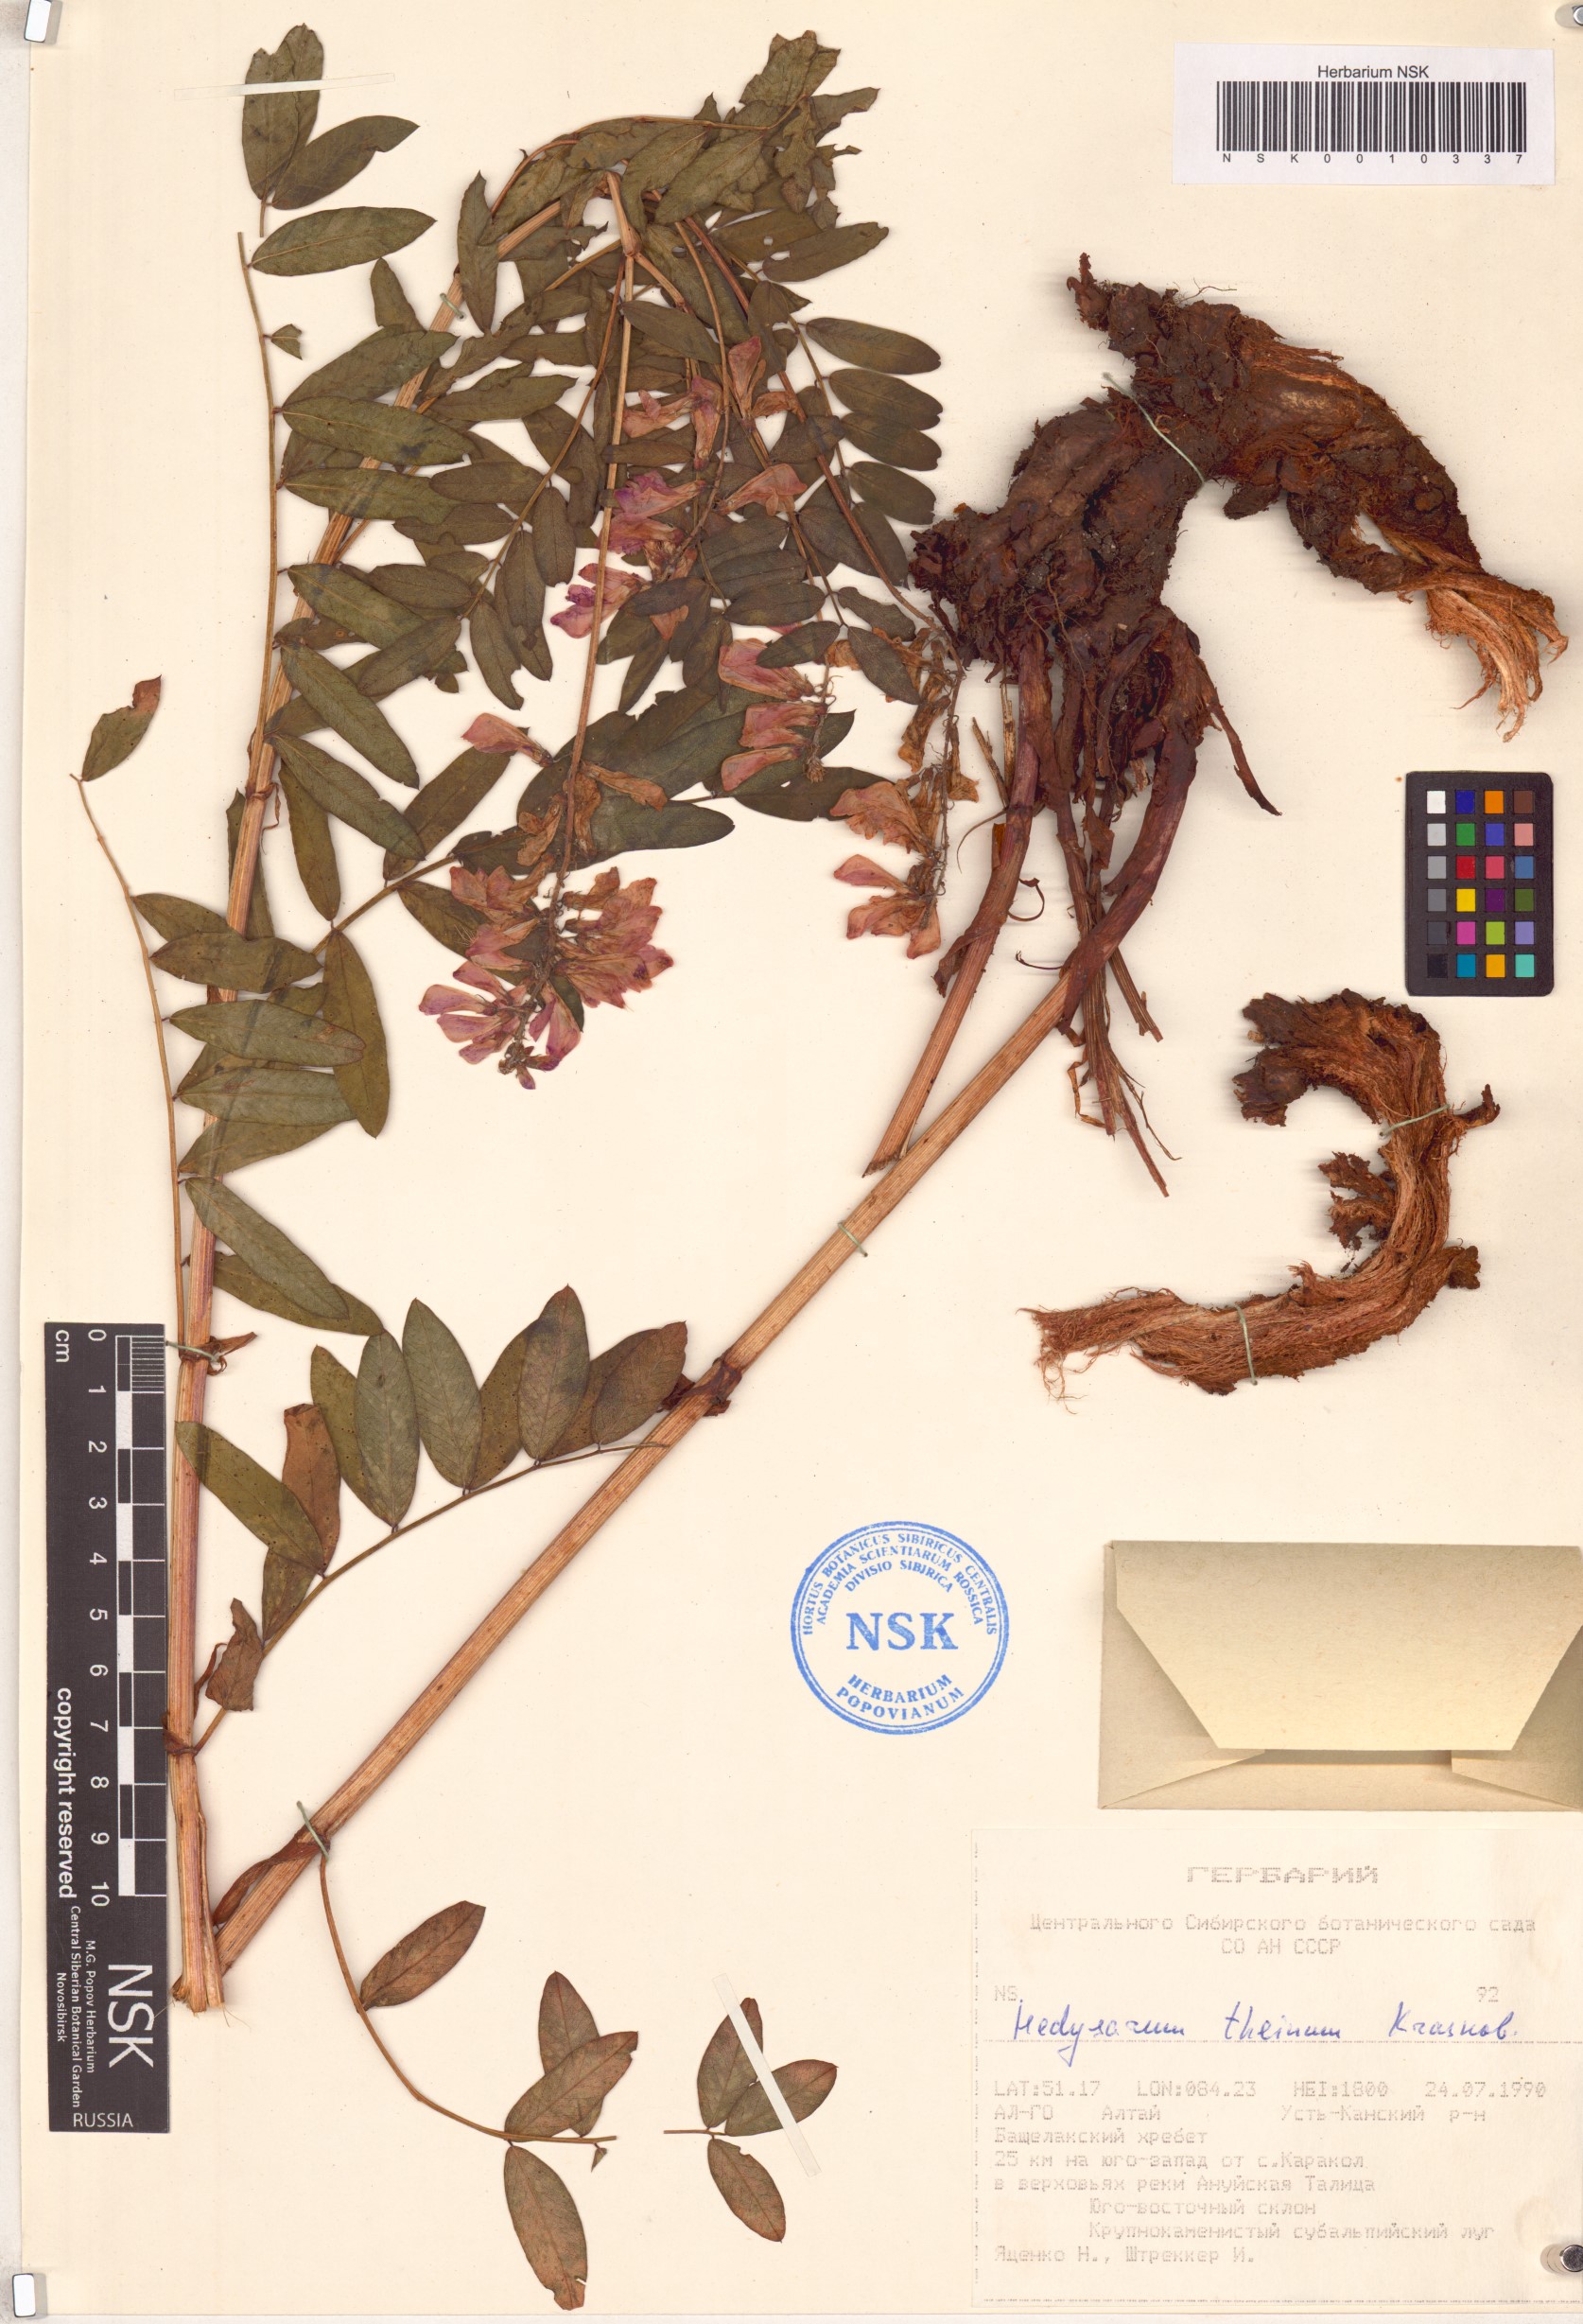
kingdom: Plantae
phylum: Tracheophyta
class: Magnoliopsida
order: Fabales
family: Fabaceae
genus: Hedysarum
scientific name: Hedysarum theinum
